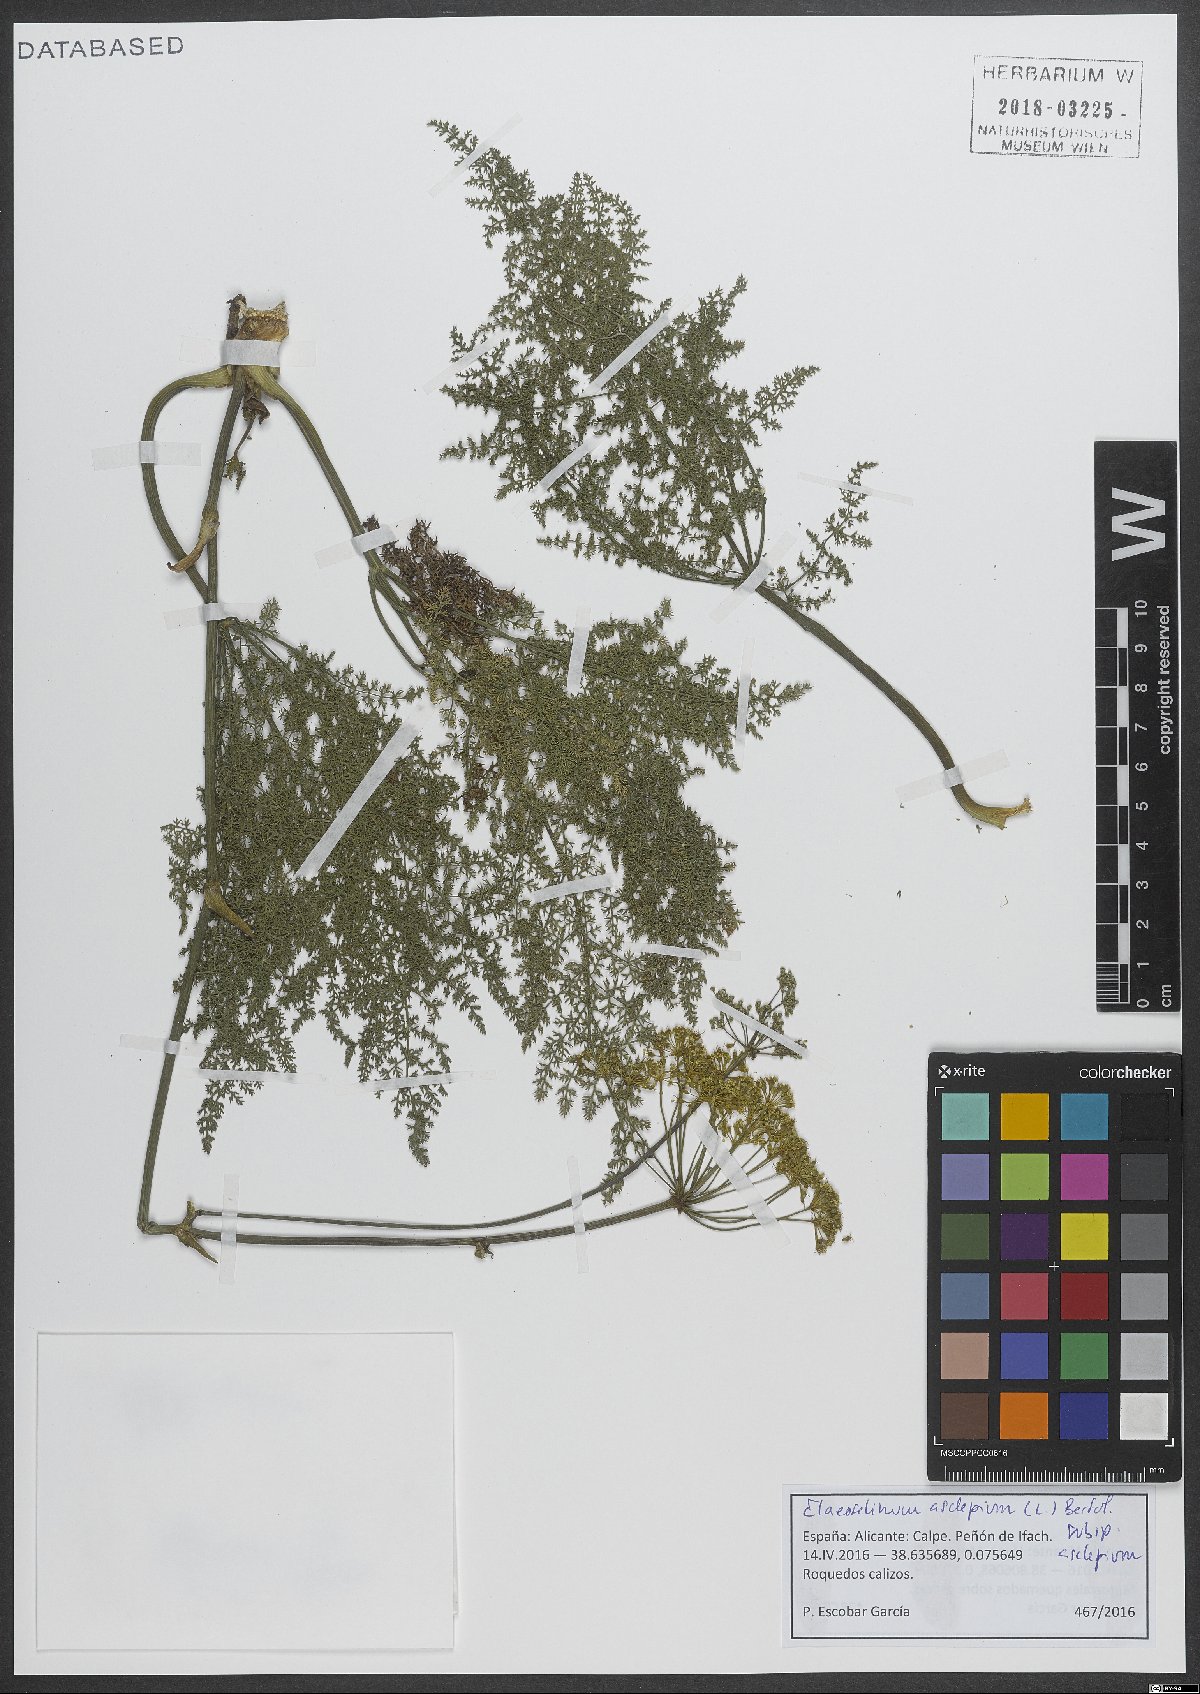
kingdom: Plantae
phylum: Tracheophyta
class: Magnoliopsida
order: Apiales
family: Apiaceae
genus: Thapsia
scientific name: Thapsia asclepium
